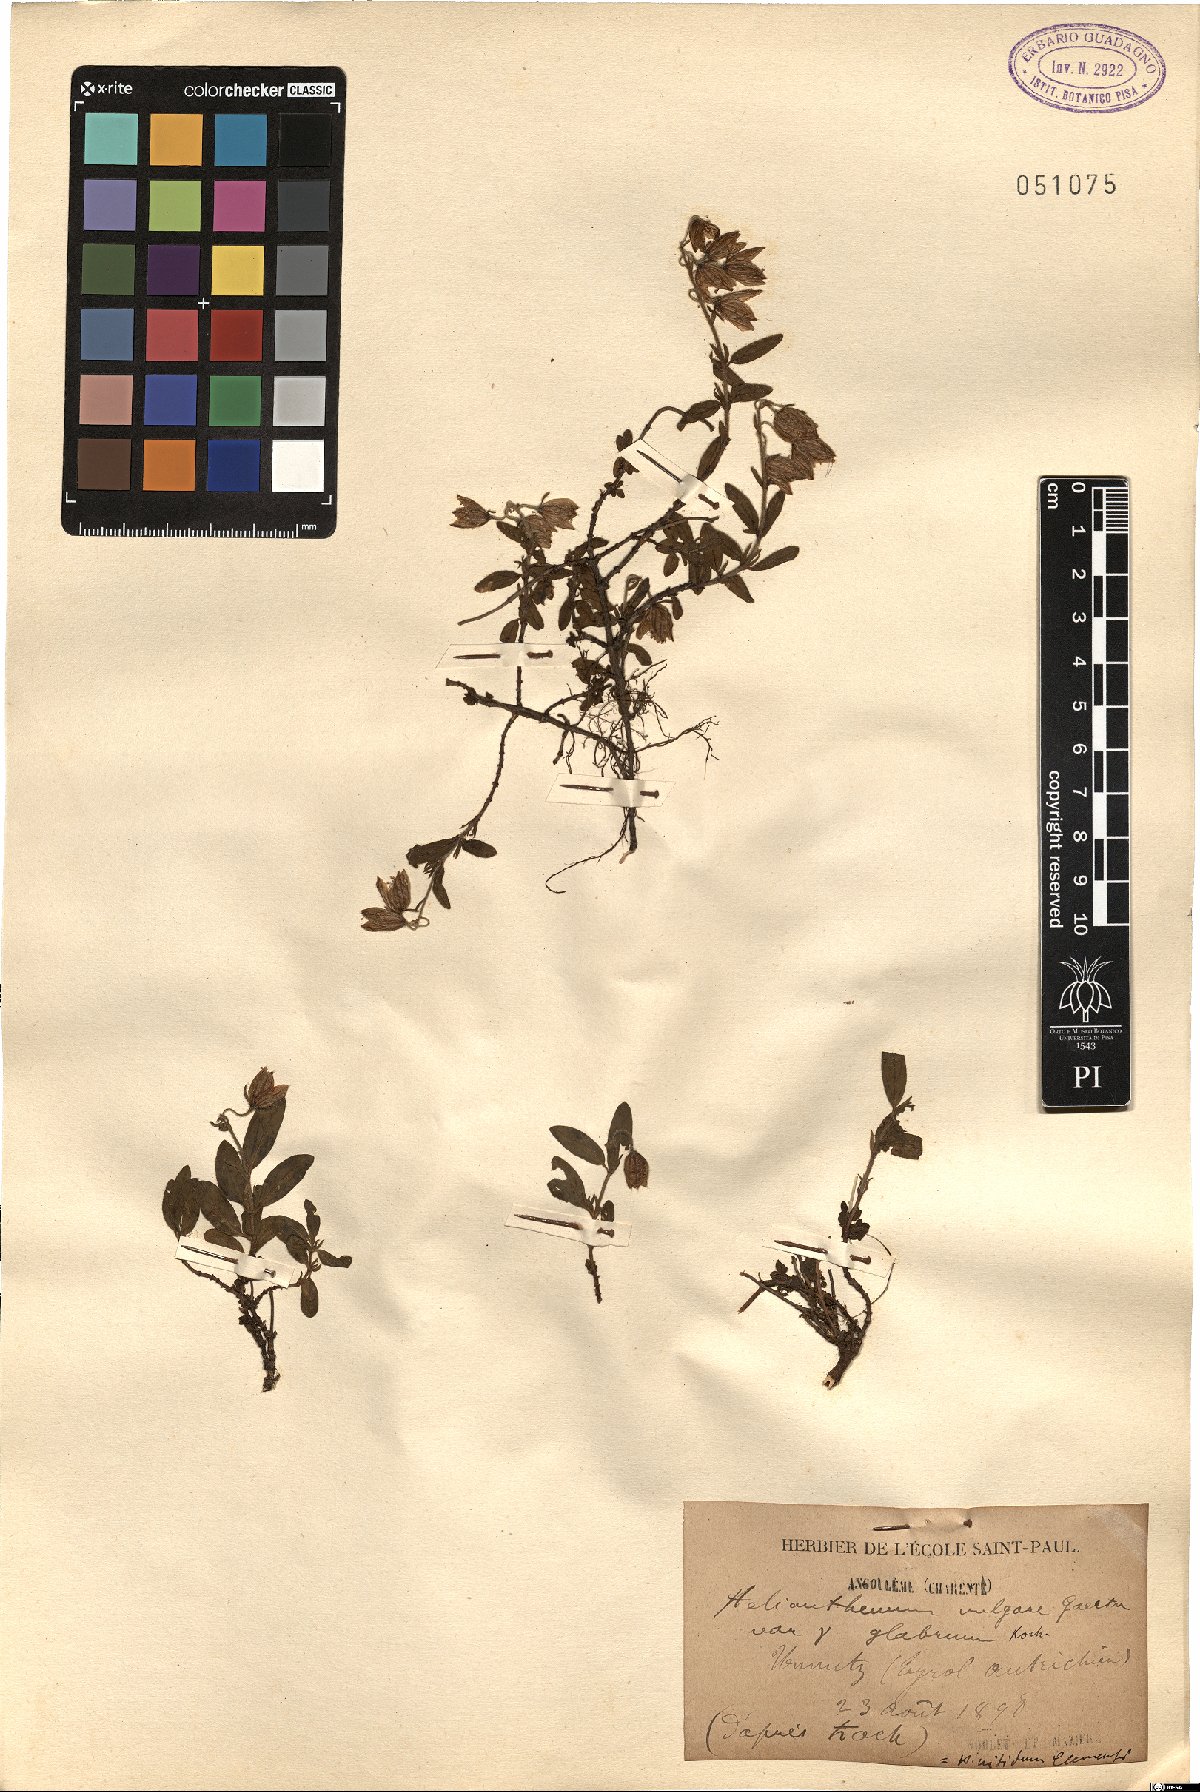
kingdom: Plantae
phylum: Tracheophyta
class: Magnoliopsida
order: Malvales
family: Cistaceae
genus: Helianthemum
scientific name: Helianthemum nummularium
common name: Common rock-rose
